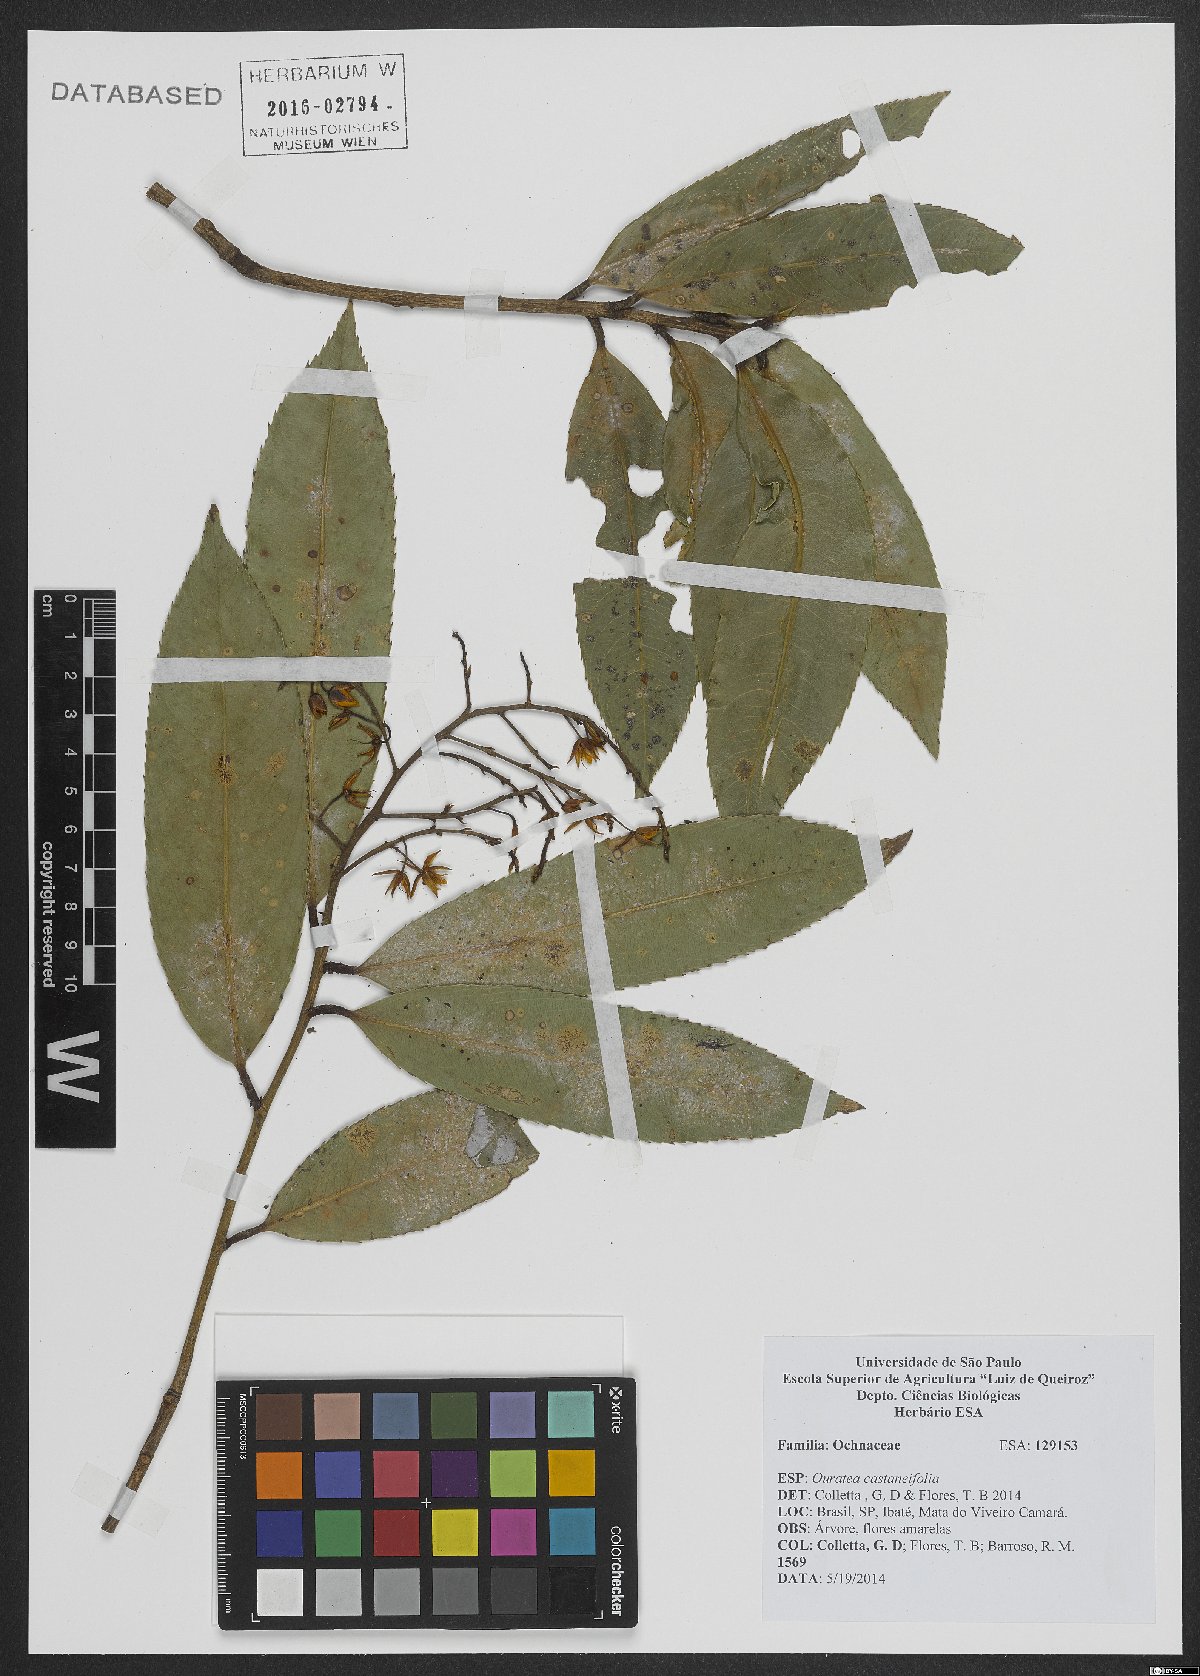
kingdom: Plantae
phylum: Tracheophyta
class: Magnoliopsida
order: Malpighiales
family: Ochnaceae
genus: Ouratea
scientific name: Ouratea castaneifolia
